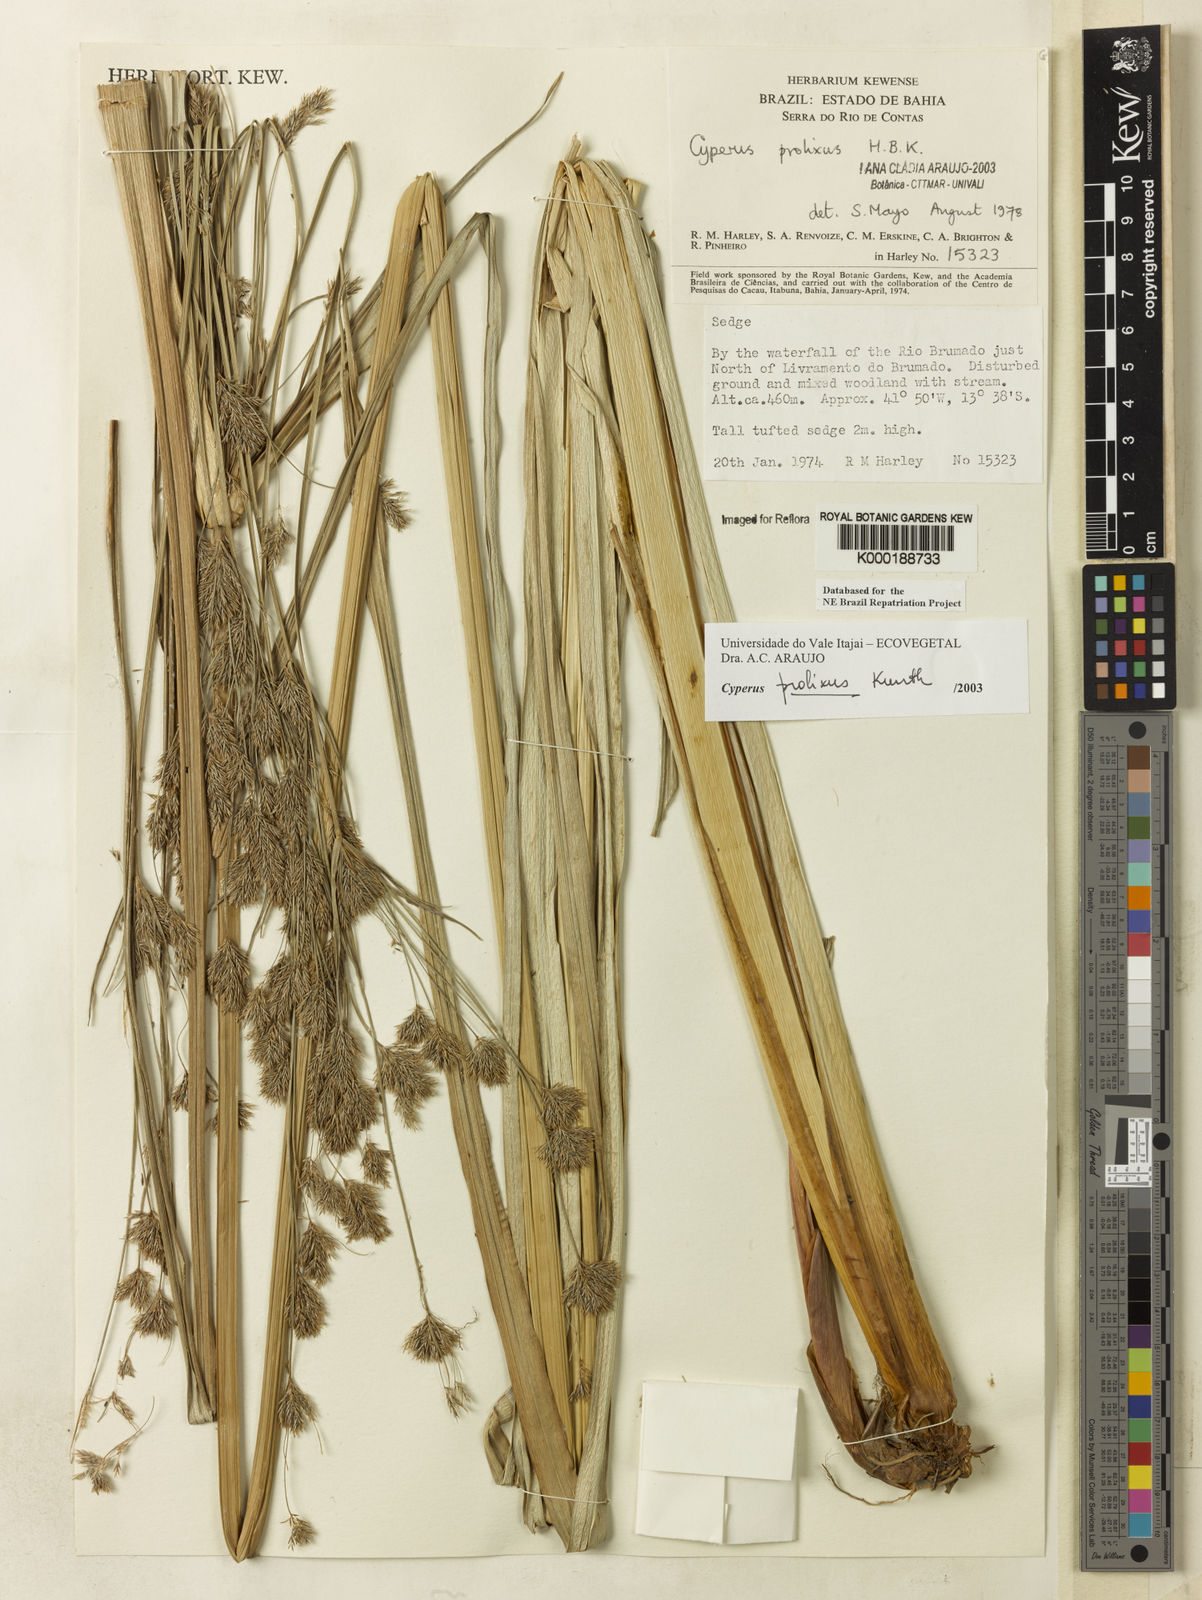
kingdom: Plantae
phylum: Tracheophyta
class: Liliopsida
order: Poales
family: Cyperaceae
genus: Cyperus
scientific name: Cyperus prolixus
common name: Mosquito flatsedge
